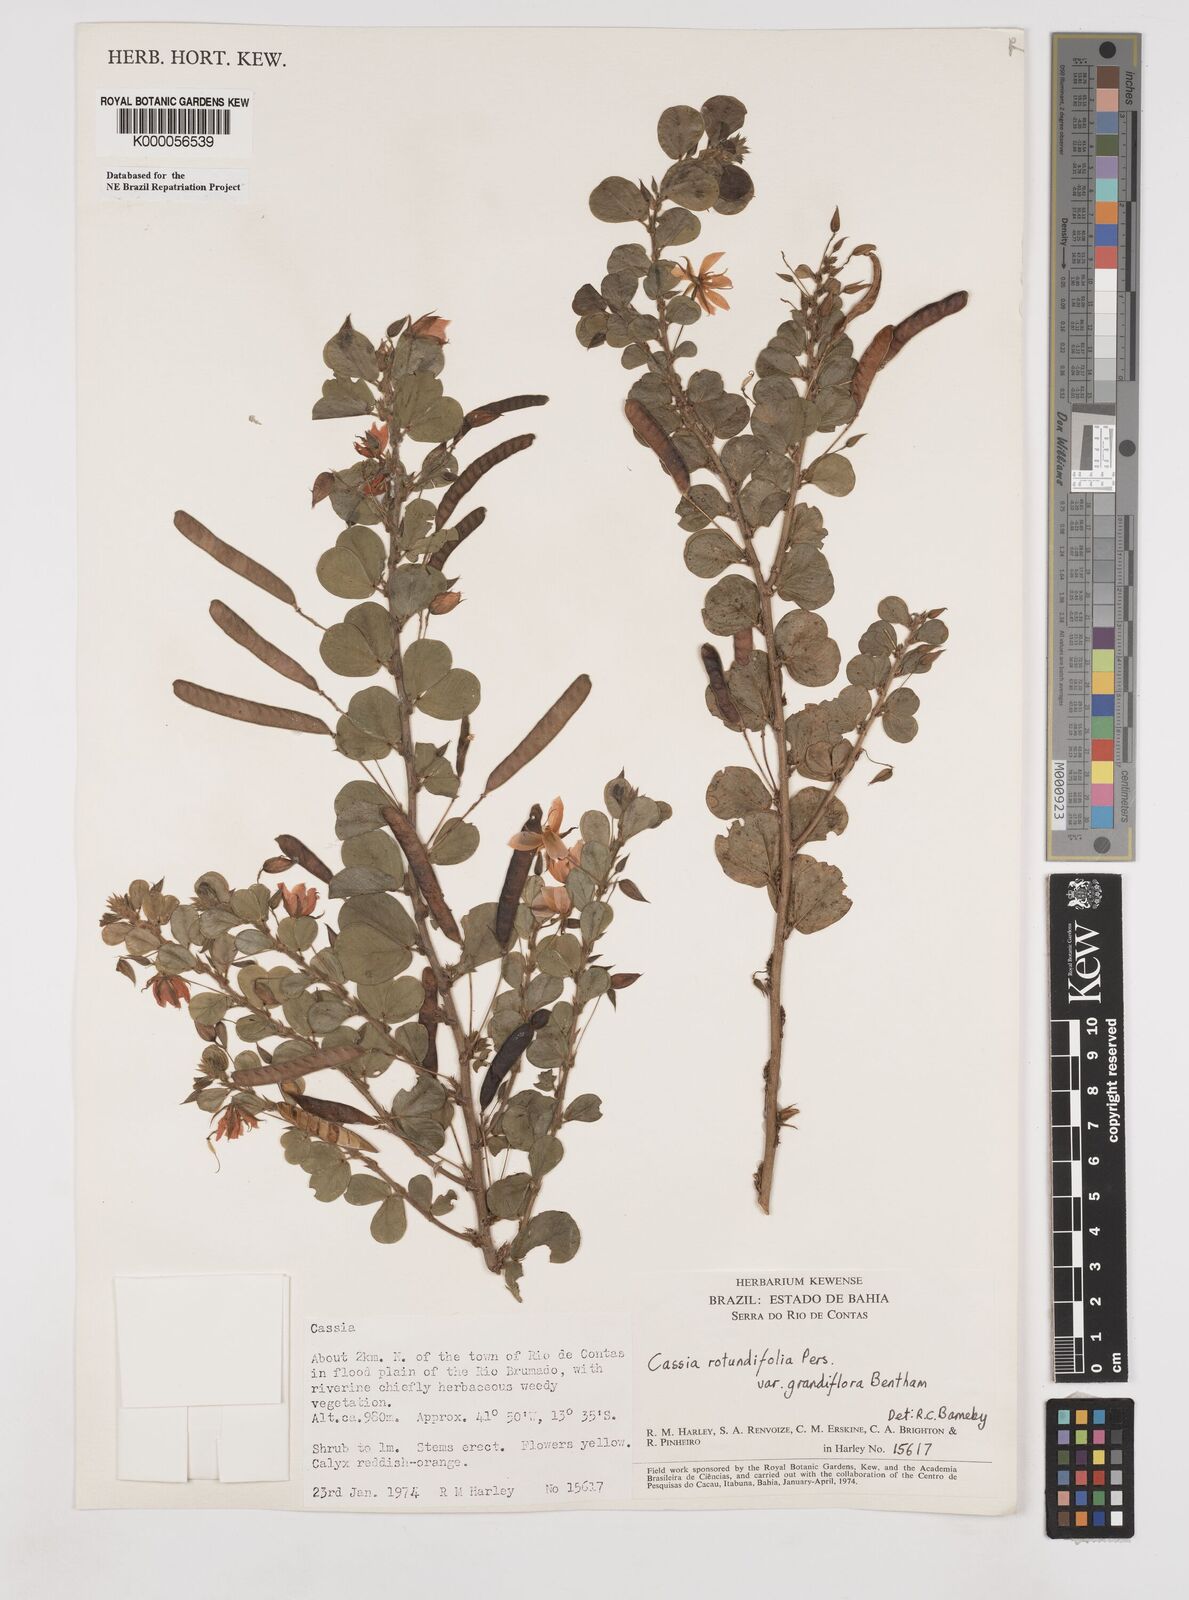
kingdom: Plantae
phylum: Tracheophyta
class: Magnoliopsida
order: Fabales
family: Fabaceae
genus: Chamaecrista
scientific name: Chamaecrista rotundifolia
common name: Round-leaf cassia
